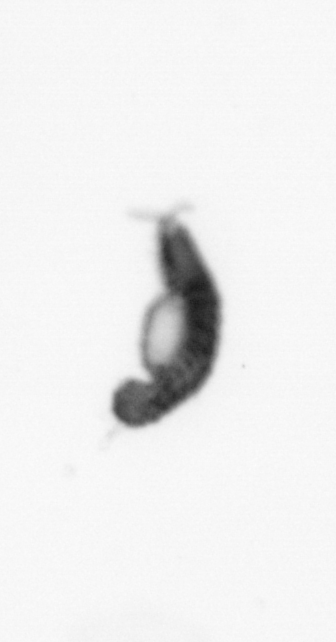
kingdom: Animalia
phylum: Annelida
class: Polychaeta
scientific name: Polychaeta
